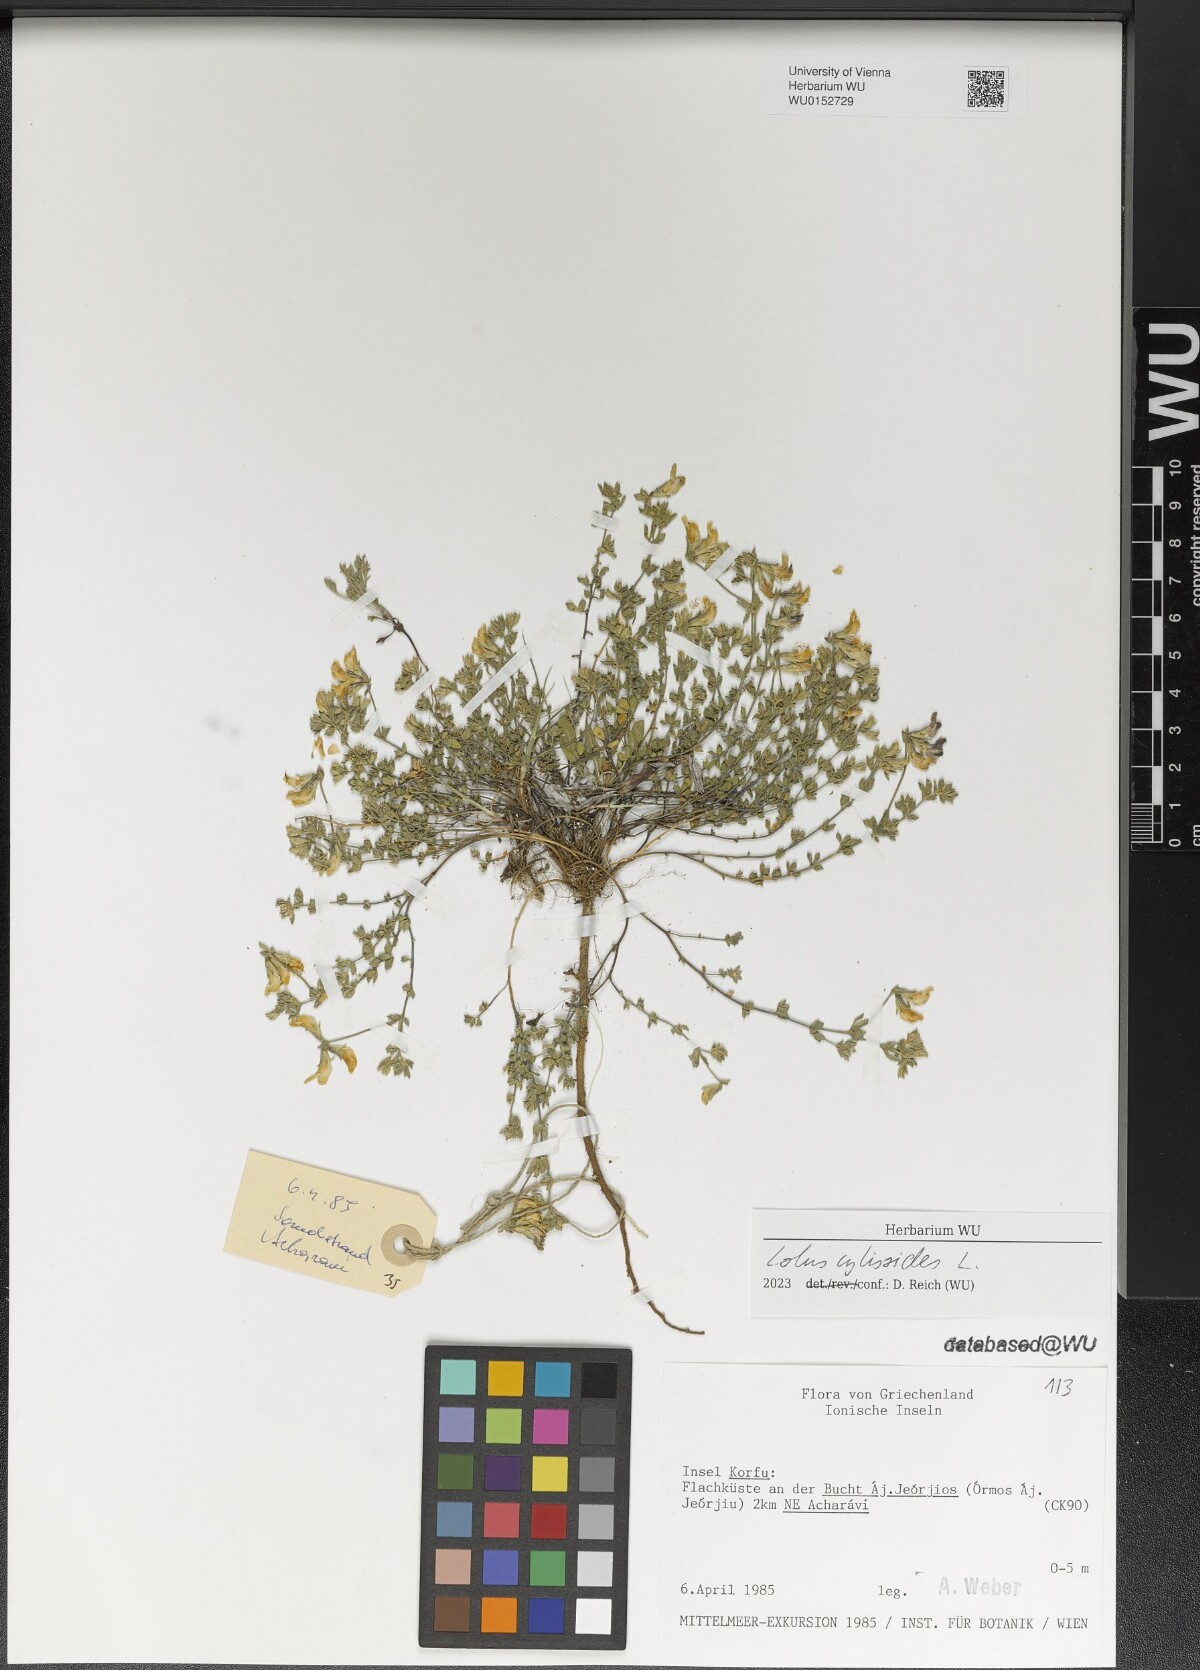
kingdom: Plantae
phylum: Tracheophyta
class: Magnoliopsida
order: Fabales
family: Fabaceae
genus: Lotus
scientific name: Lotus cytisoides
